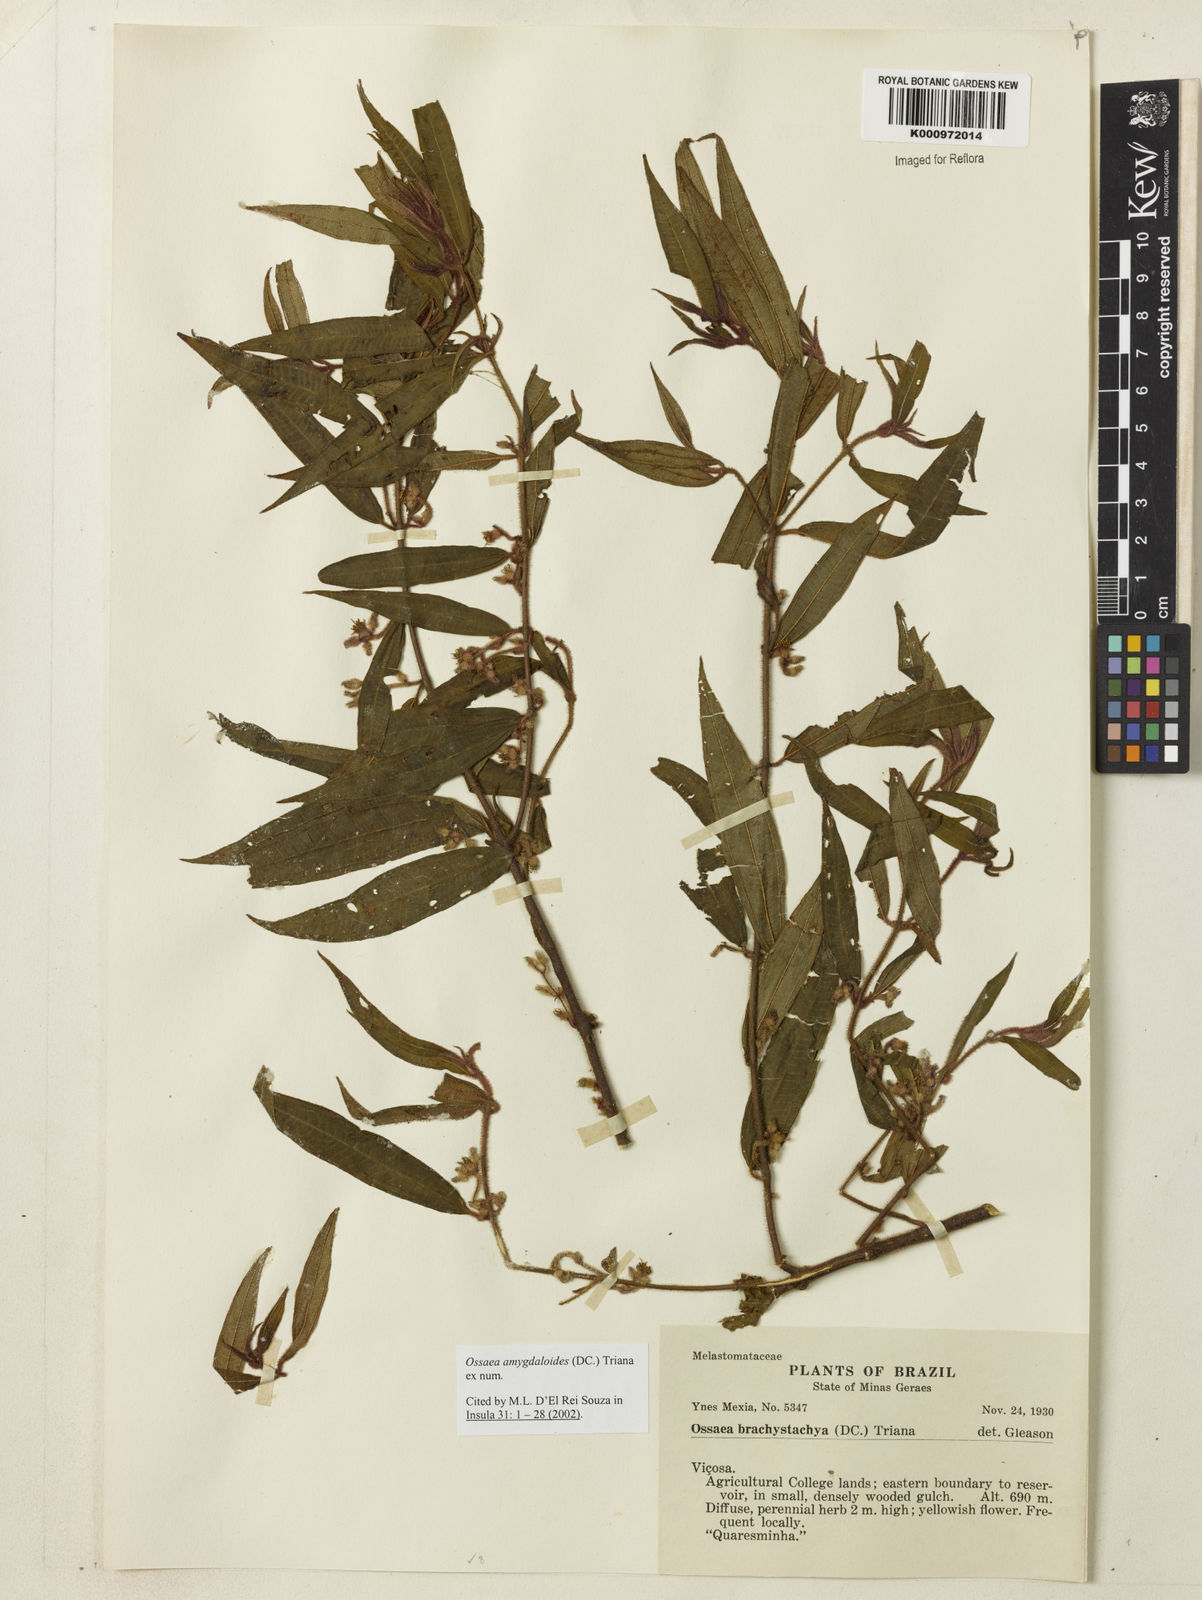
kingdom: Plantae
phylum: Tracheophyta
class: Magnoliopsida
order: Myrtales
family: Melastomataceae
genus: Miconia
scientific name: Miconia amygdaloides
